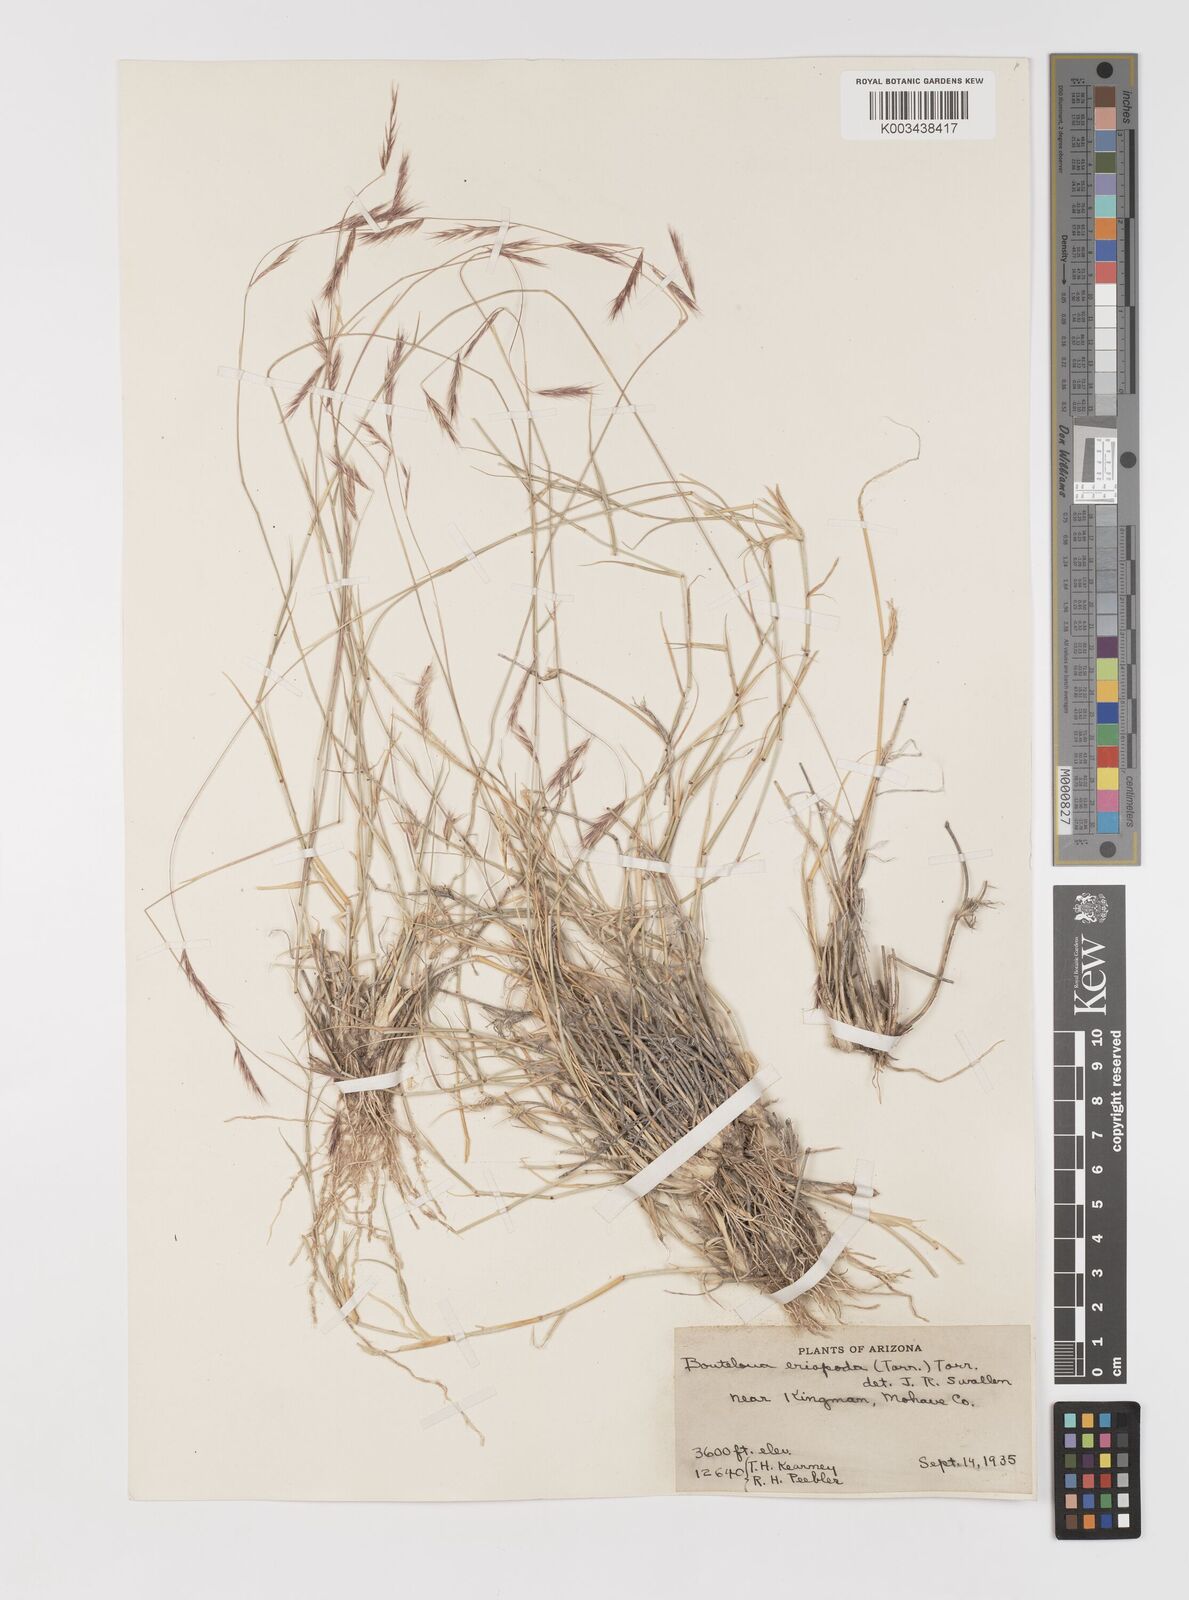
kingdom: Plantae
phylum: Tracheophyta
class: Liliopsida
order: Poales
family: Poaceae
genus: Bouteloua
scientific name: Bouteloua eriopoda
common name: Woolly foot grama
